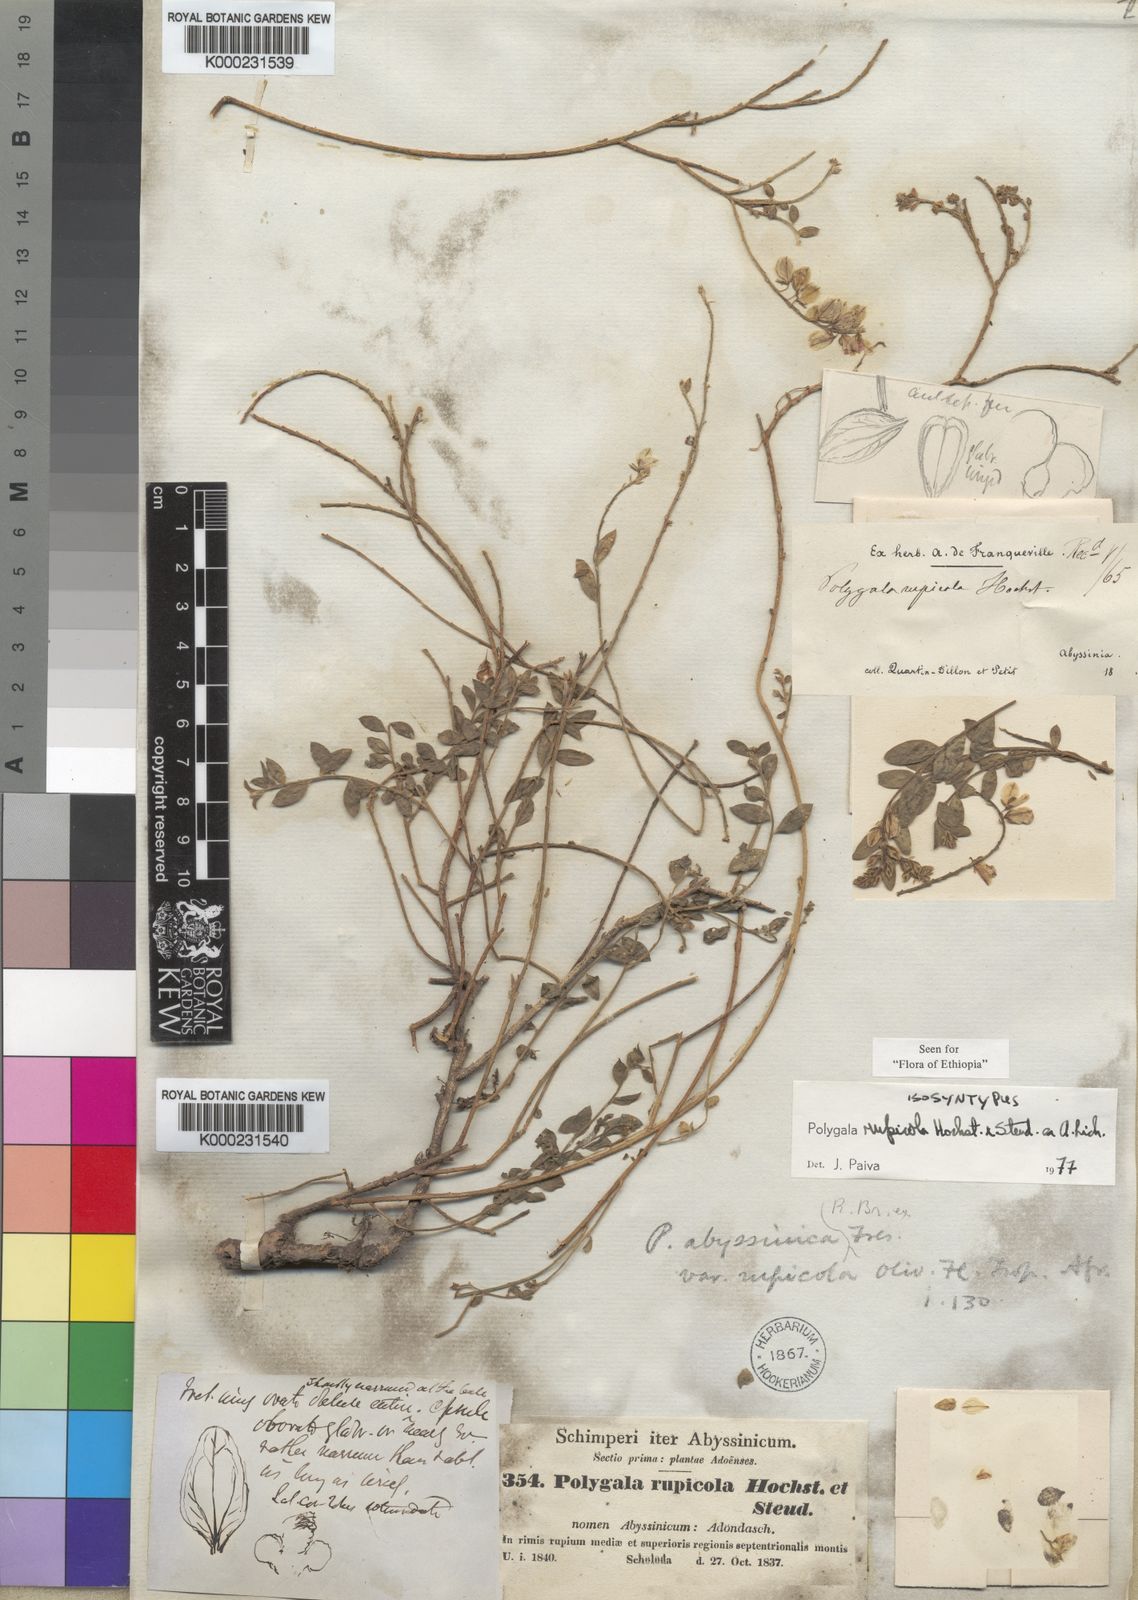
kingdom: Plantae
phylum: Tracheophyta
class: Magnoliopsida
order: Fabales
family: Polygalaceae
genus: Polygala
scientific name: Polygala rupicola
